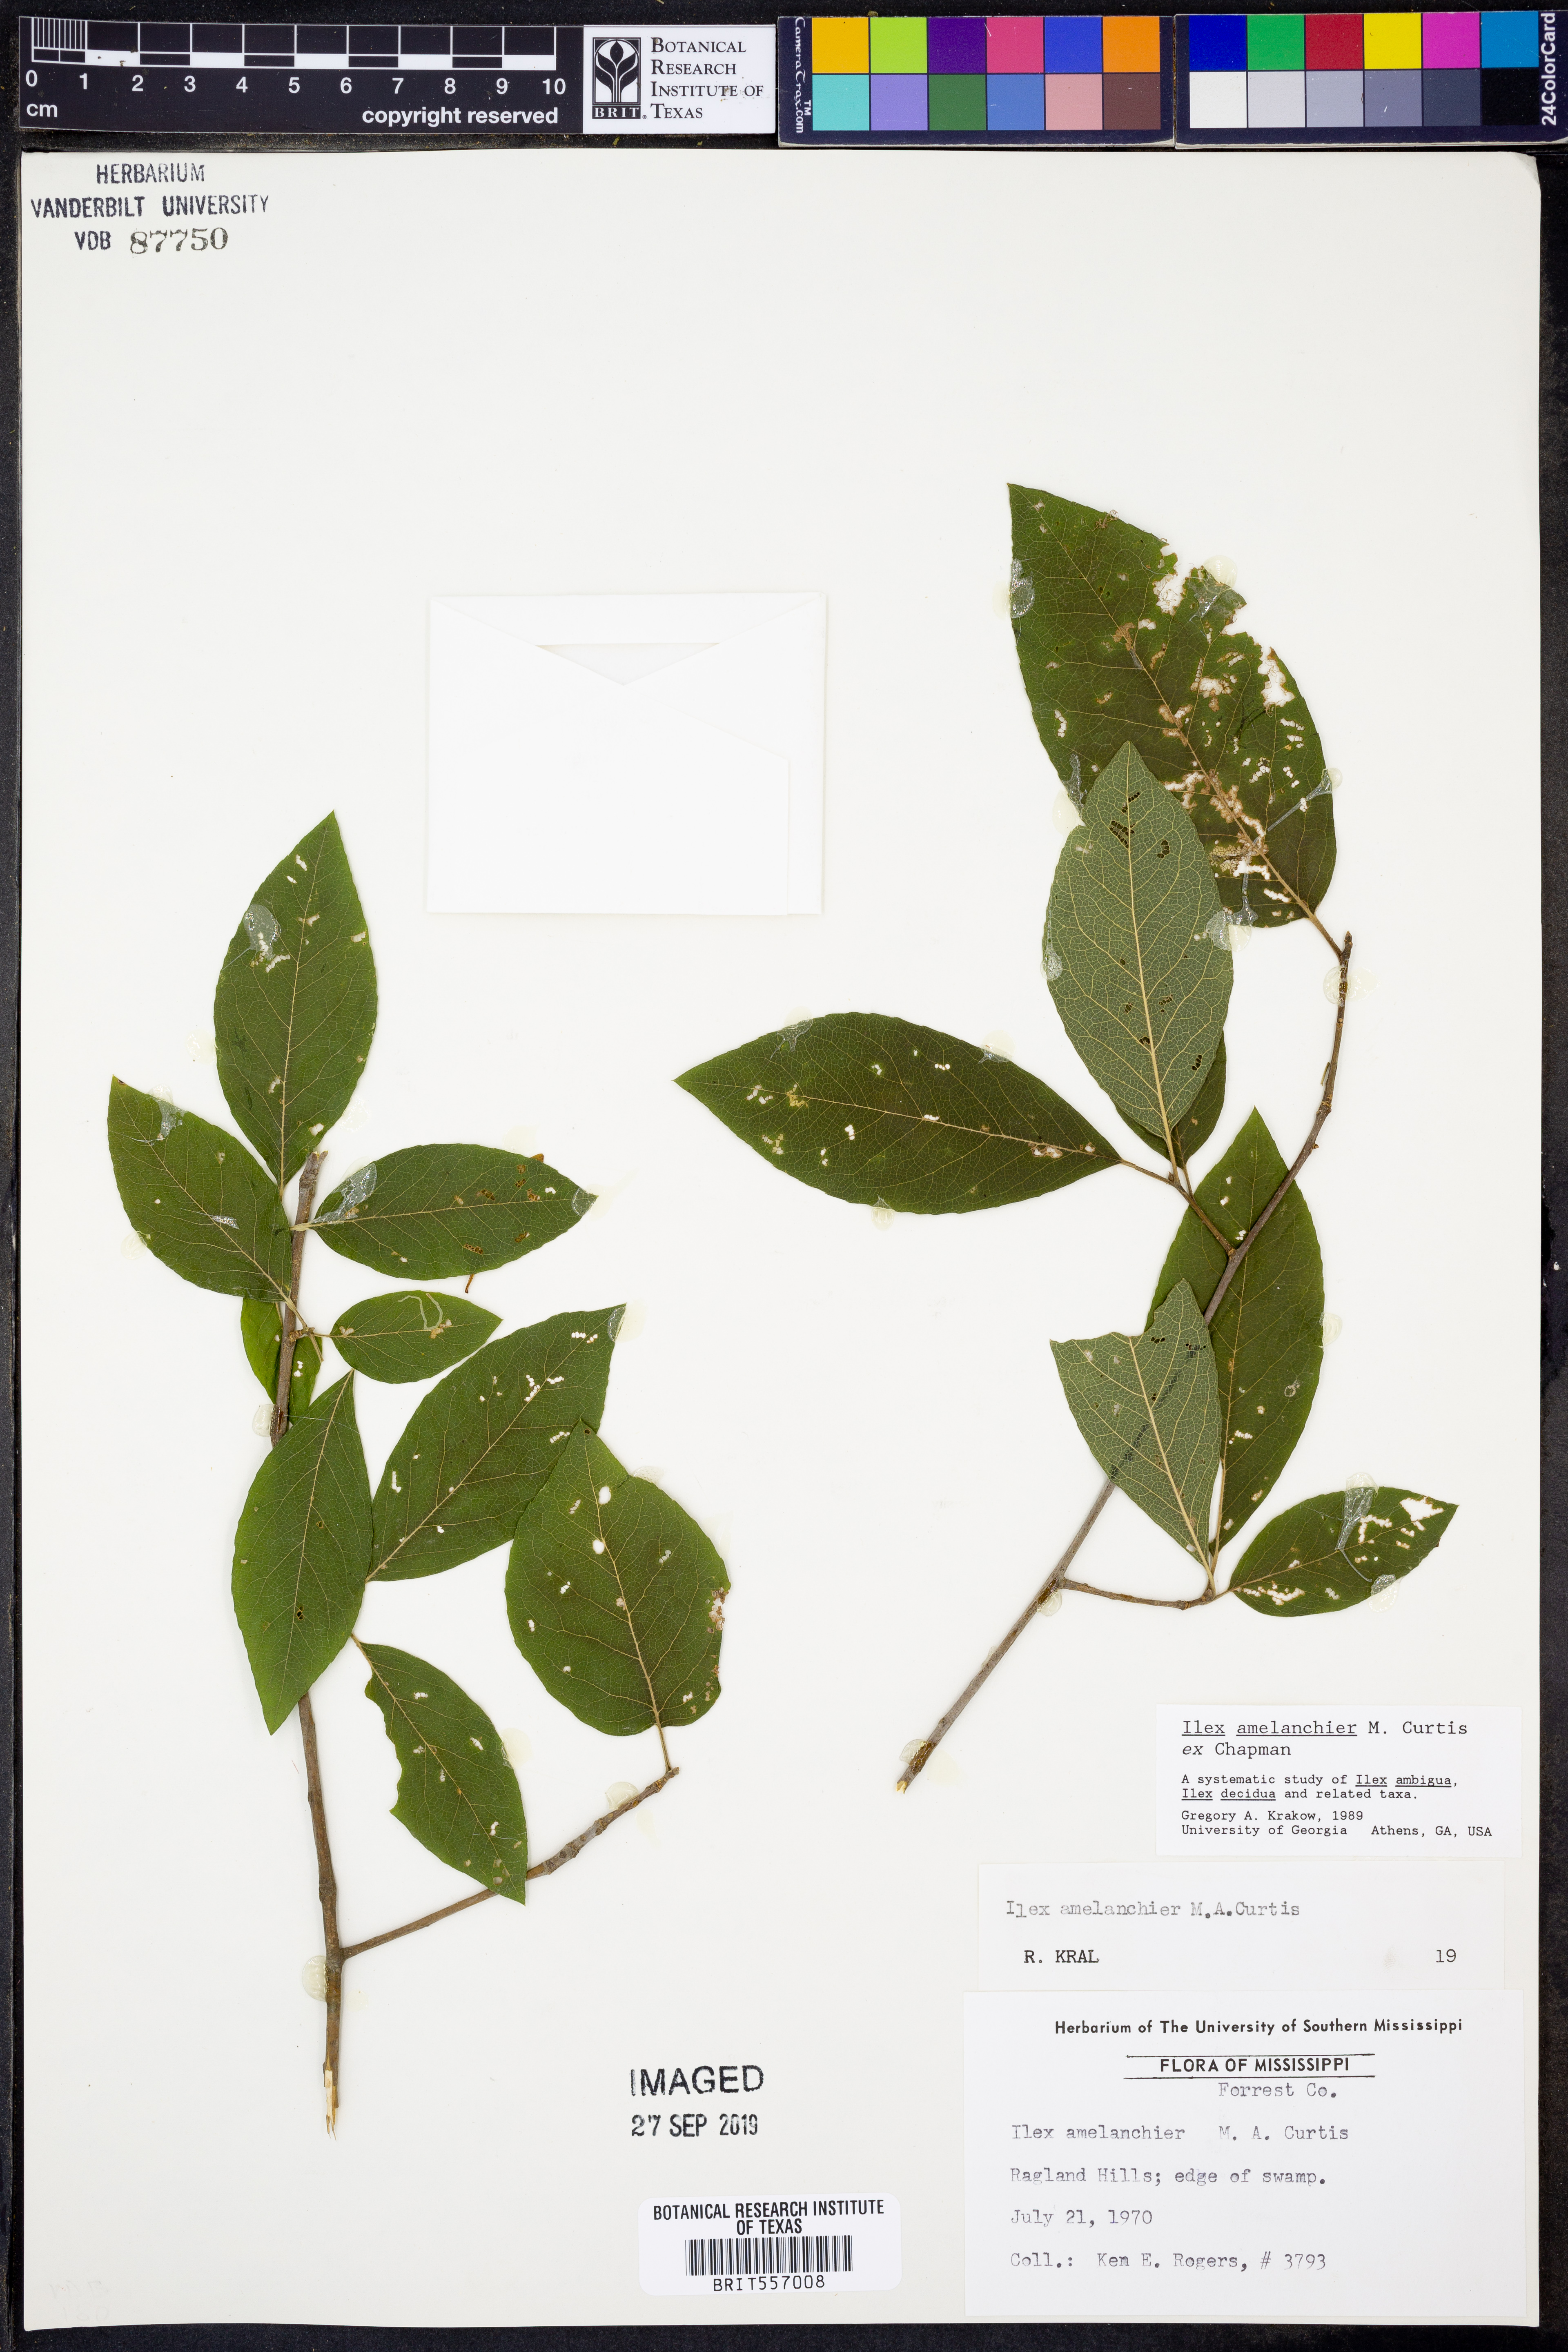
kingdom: Plantae
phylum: Tracheophyta
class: Magnoliopsida
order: Aquifoliales
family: Aquifoliaceae
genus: Ilex
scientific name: Ilex amelanchier
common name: Sarvis holly
